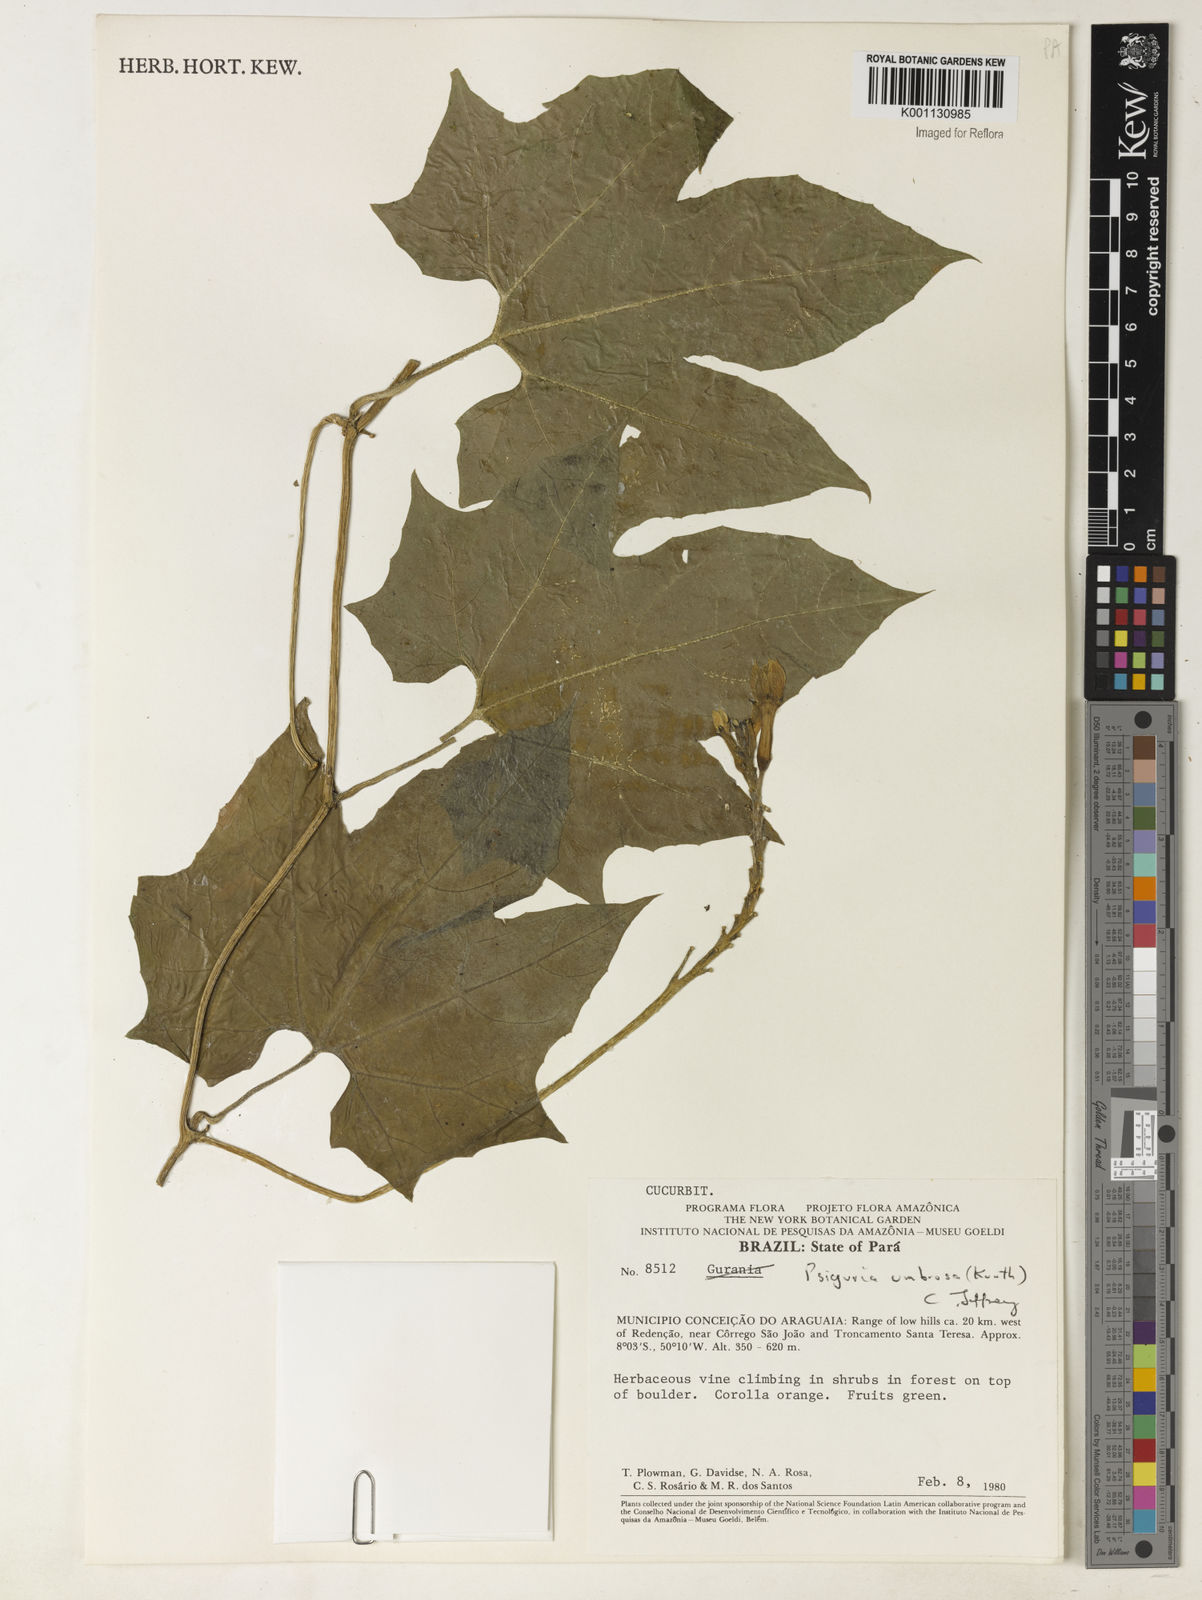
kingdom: Plantae
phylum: Tracheophyta
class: Magnoliopsida
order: Cucurbitales
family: Cucurbitaceae
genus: Psiguria
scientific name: Psiguria umbrosa
